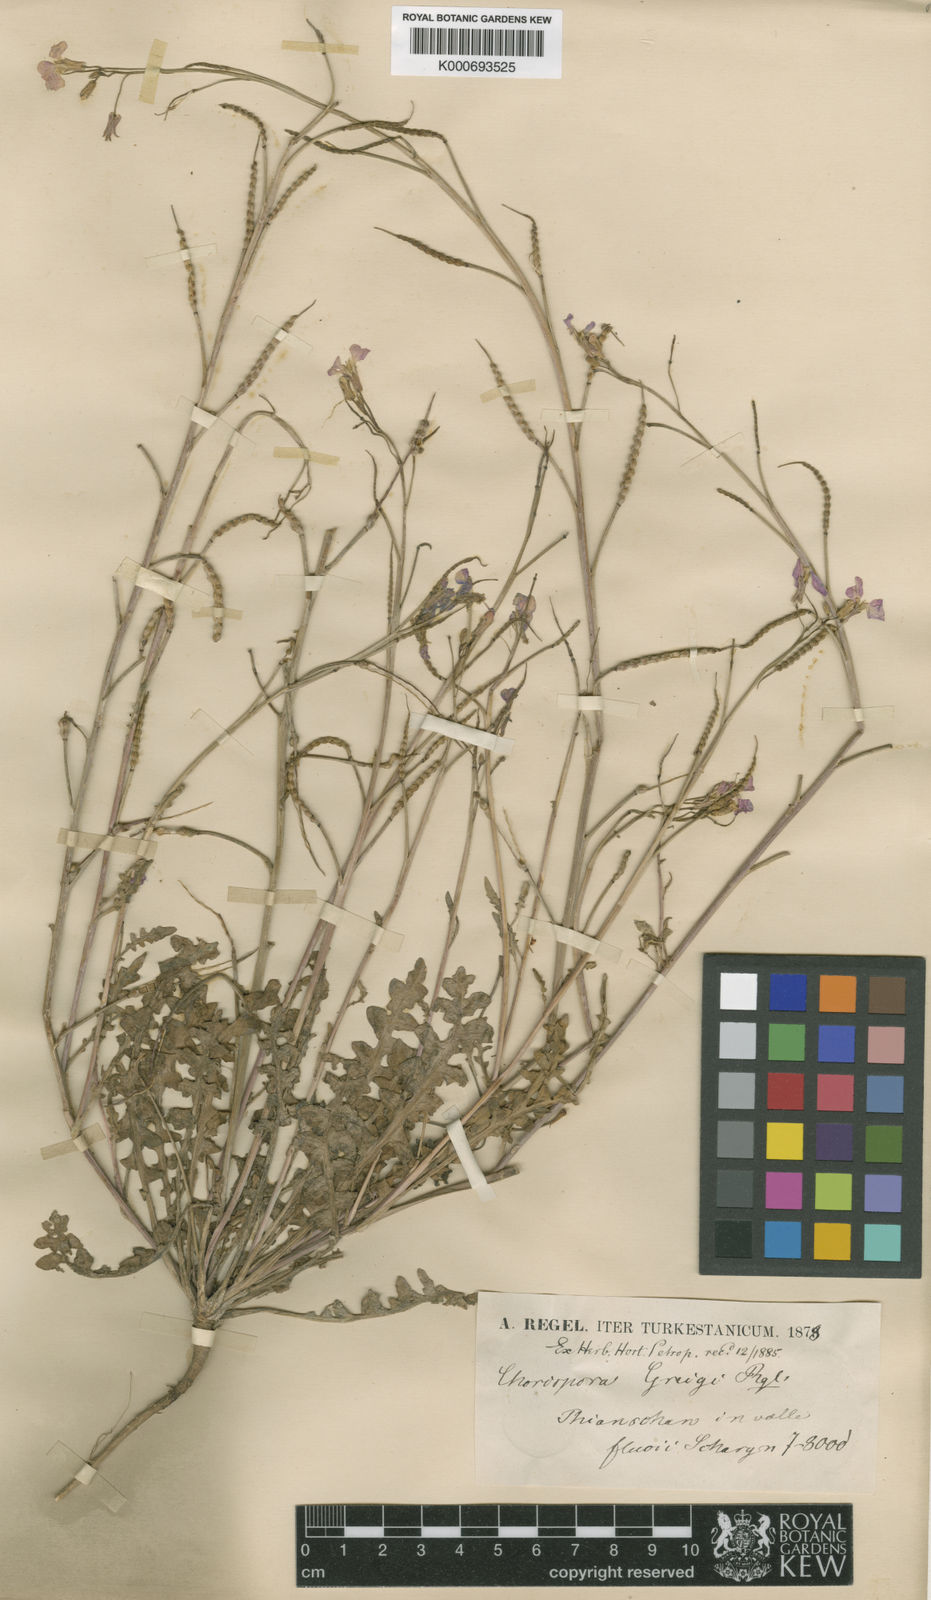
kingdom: Plantae
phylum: Tracheophyta
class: Magnoliopsida
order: Brassicales
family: Brassicaceae
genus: Chorispora
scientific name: Chorispora greigii
